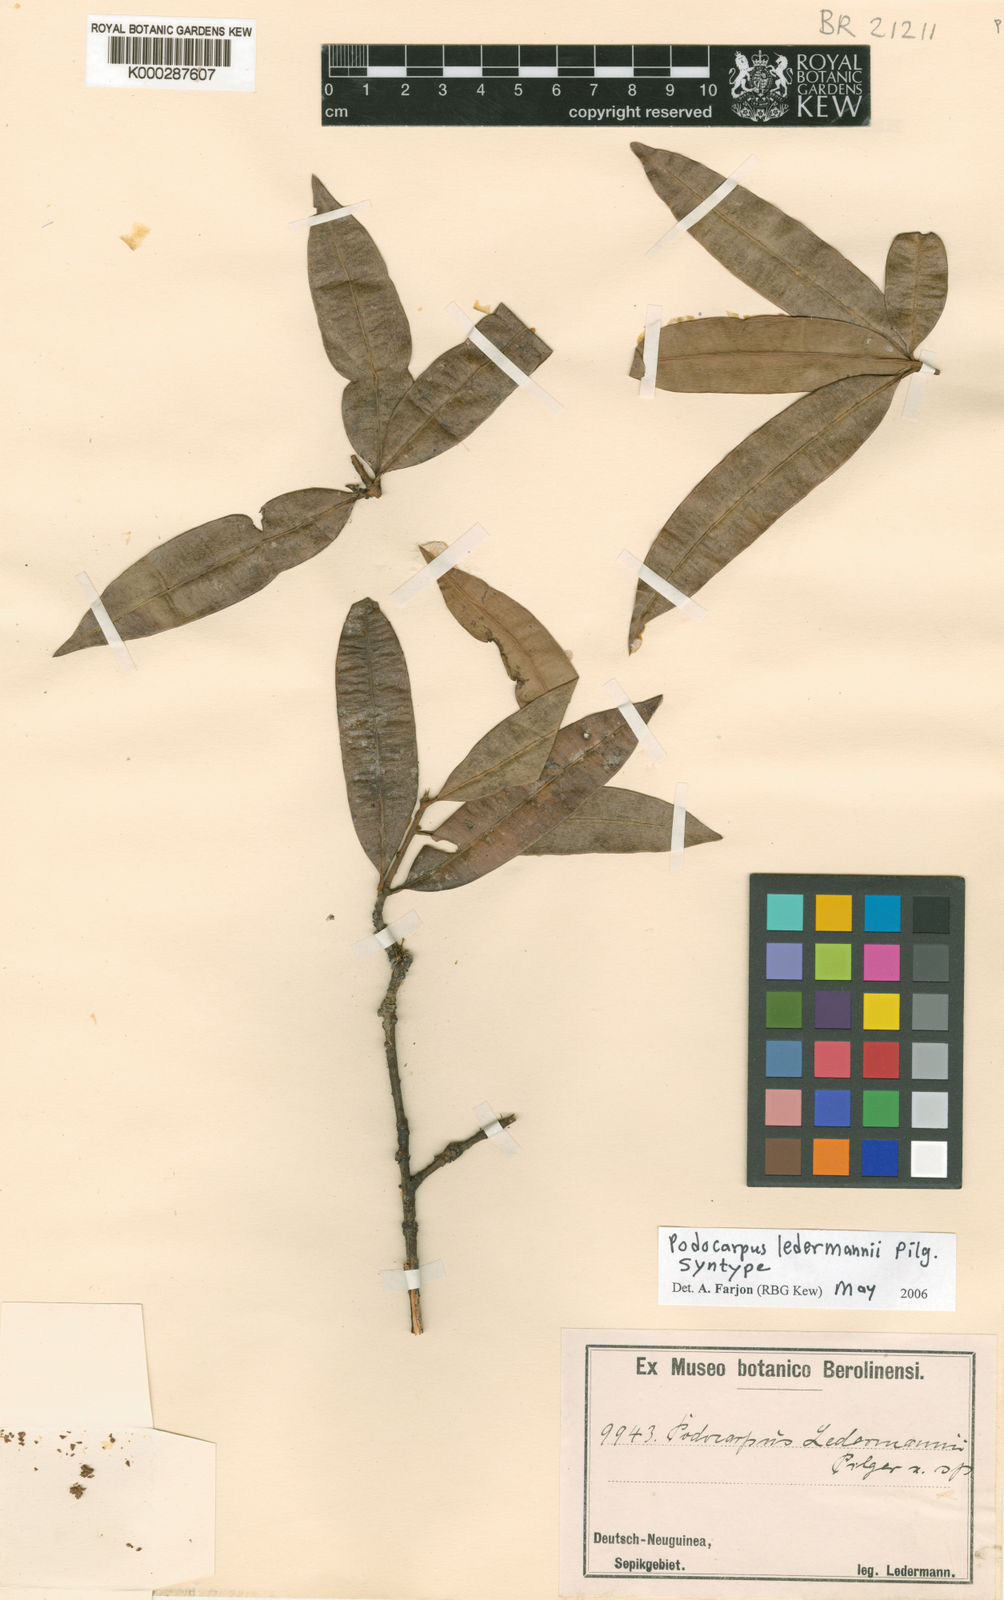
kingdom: Plantae
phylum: Tracheophyta
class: Pinopsida
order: Pinales
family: Podocarpaceae
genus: Podocarpus
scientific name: Podocarpus ledermannii
